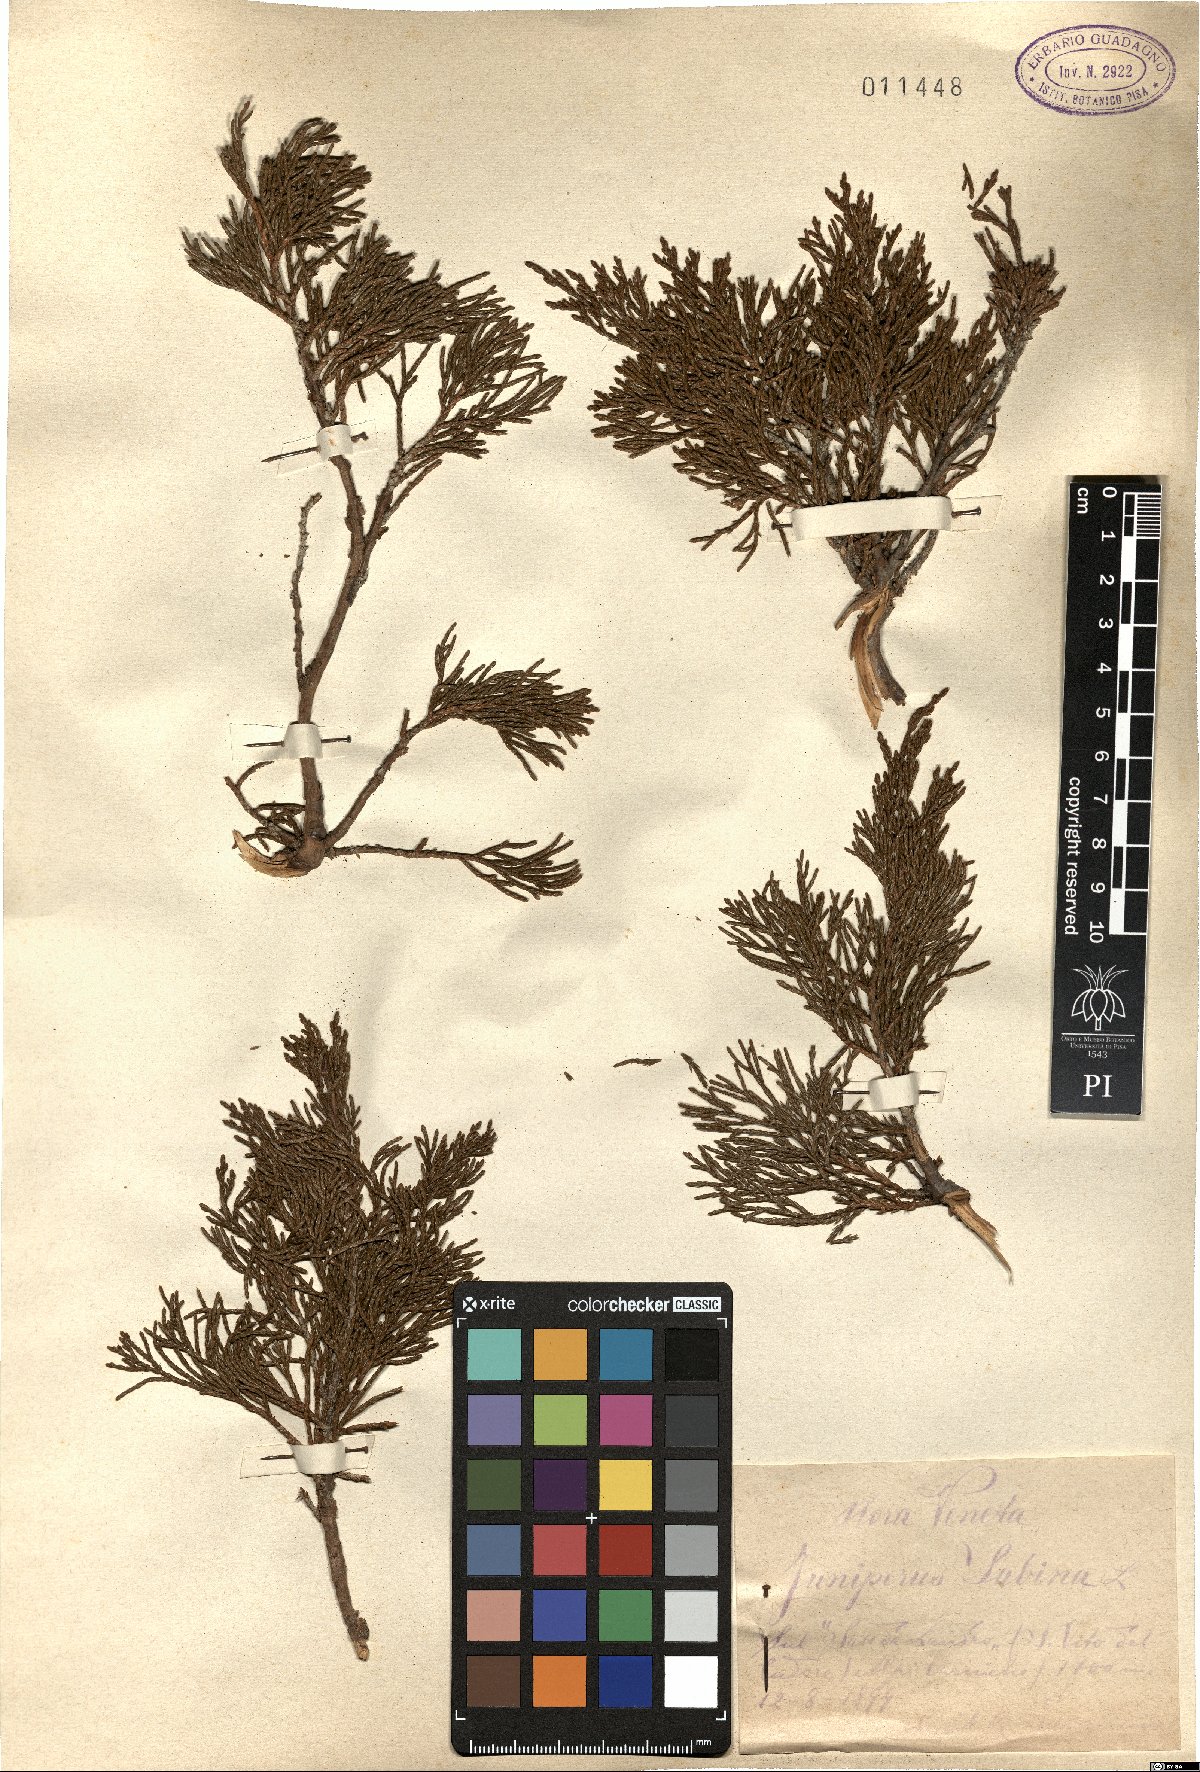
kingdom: Plantae
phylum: Tracheophyta
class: Pinopsida
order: Pinales
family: Cupressaceae
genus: Juniperus
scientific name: Juniperus sabina
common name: Savin
